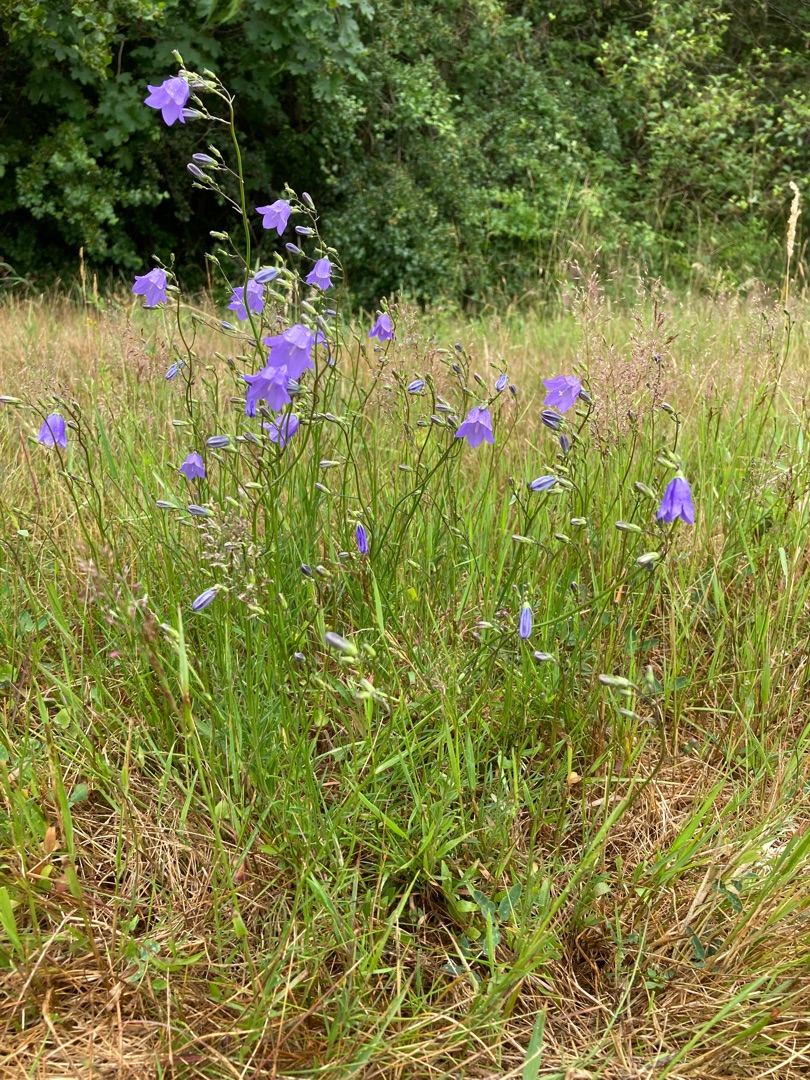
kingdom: Plantae
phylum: Tracheophyta
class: Magnoliopsida
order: Asterales
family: Campanulaceae
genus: Campanula
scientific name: Campanula rotundifolia
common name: Liden klokke
